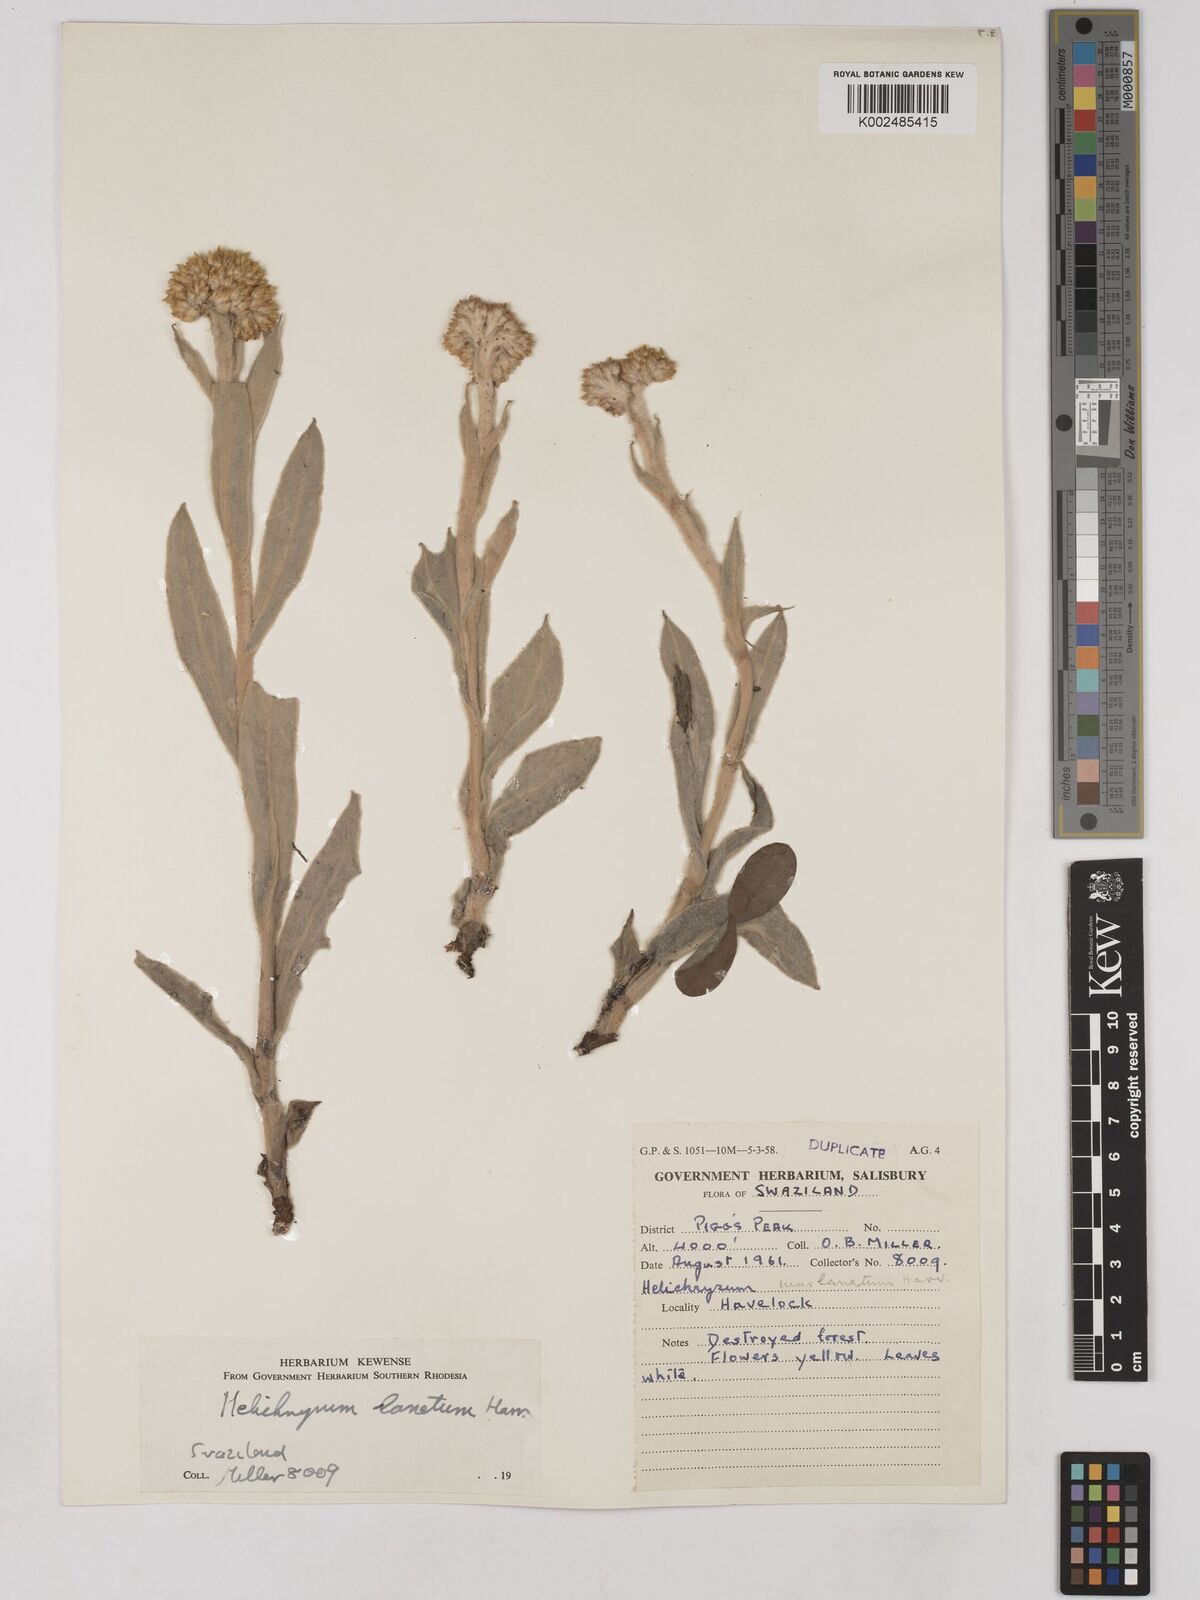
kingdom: Plantae
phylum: Tracheophyta
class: Magnoliopsida
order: Asterales
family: Asteraceae
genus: Helichrysum
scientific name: Helichrysum dasymallum
